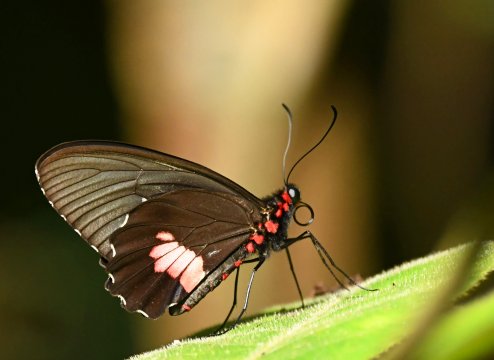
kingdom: Animalia
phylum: Arthropoda
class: Insecta
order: Lepidoptera
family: Papilionidae
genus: Parides
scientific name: Parides anchises
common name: Anchises Cattleheart
